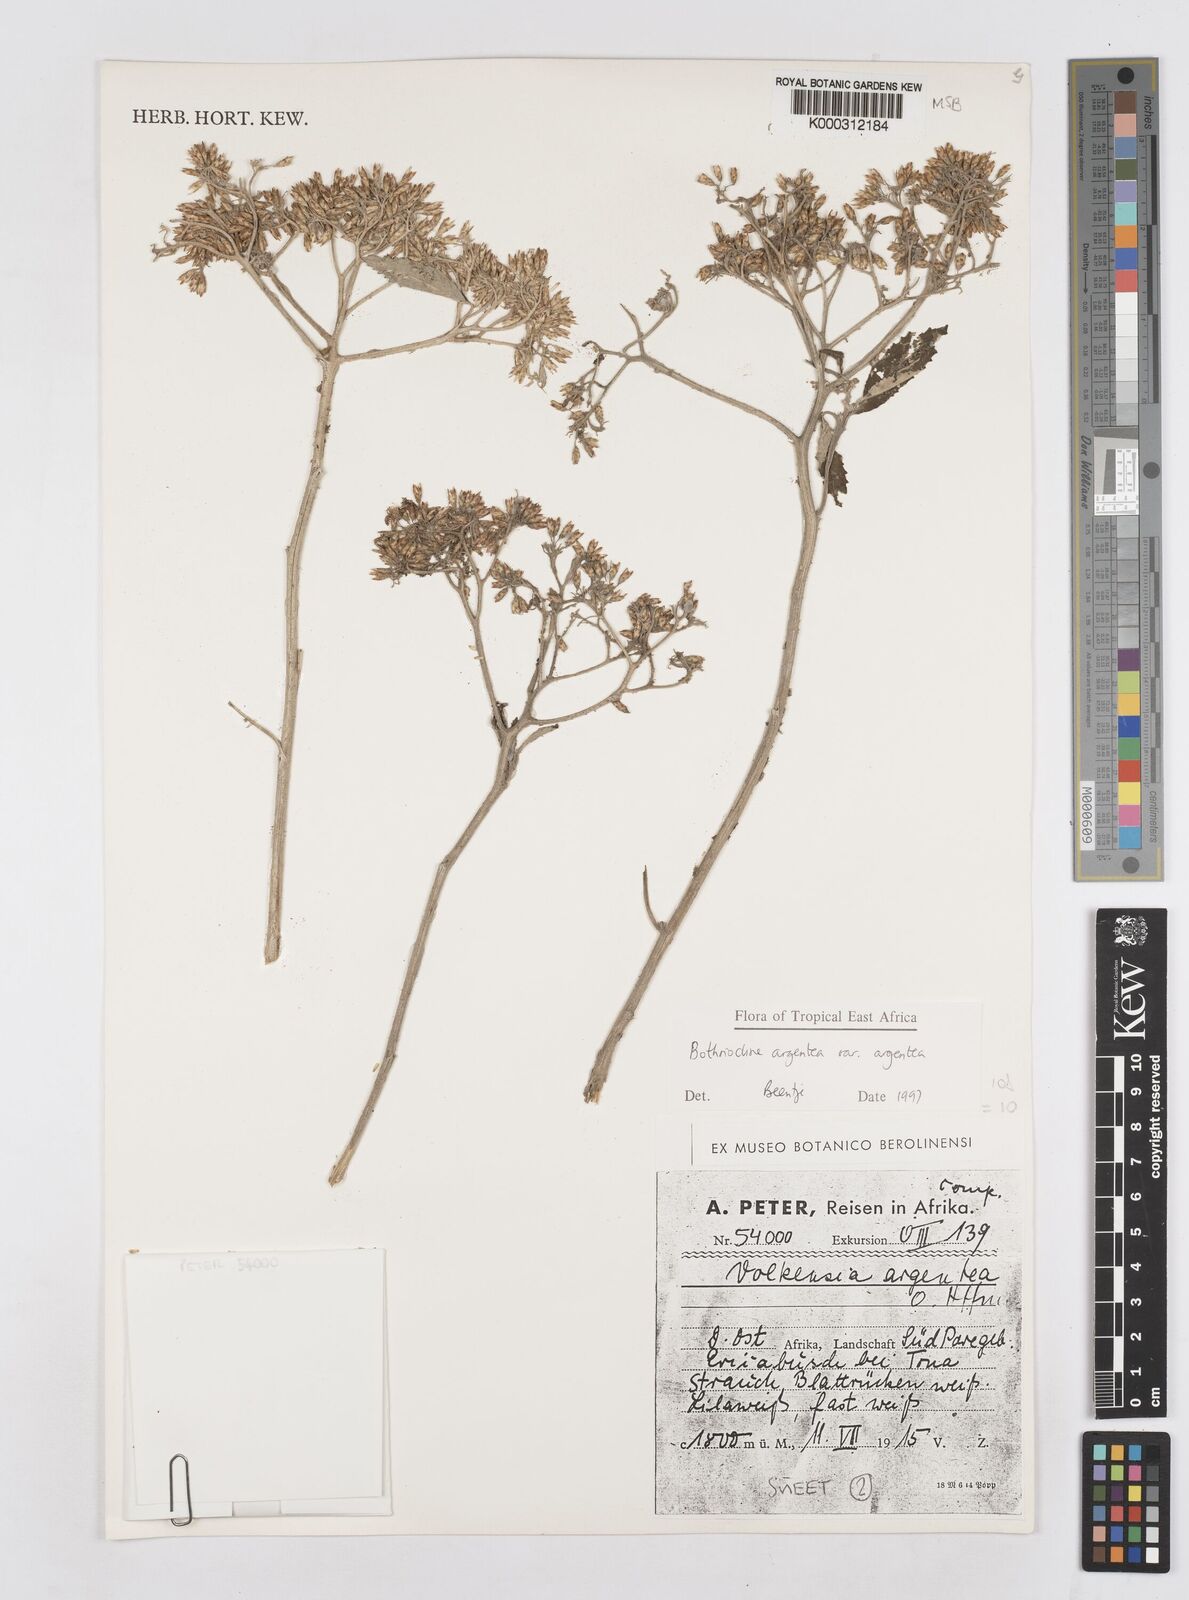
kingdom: Plantae
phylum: Tracheophyta
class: Magnoliopsida
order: Asterales
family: Asteraceae
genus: Bothriocline
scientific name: Bothriocline argentea
